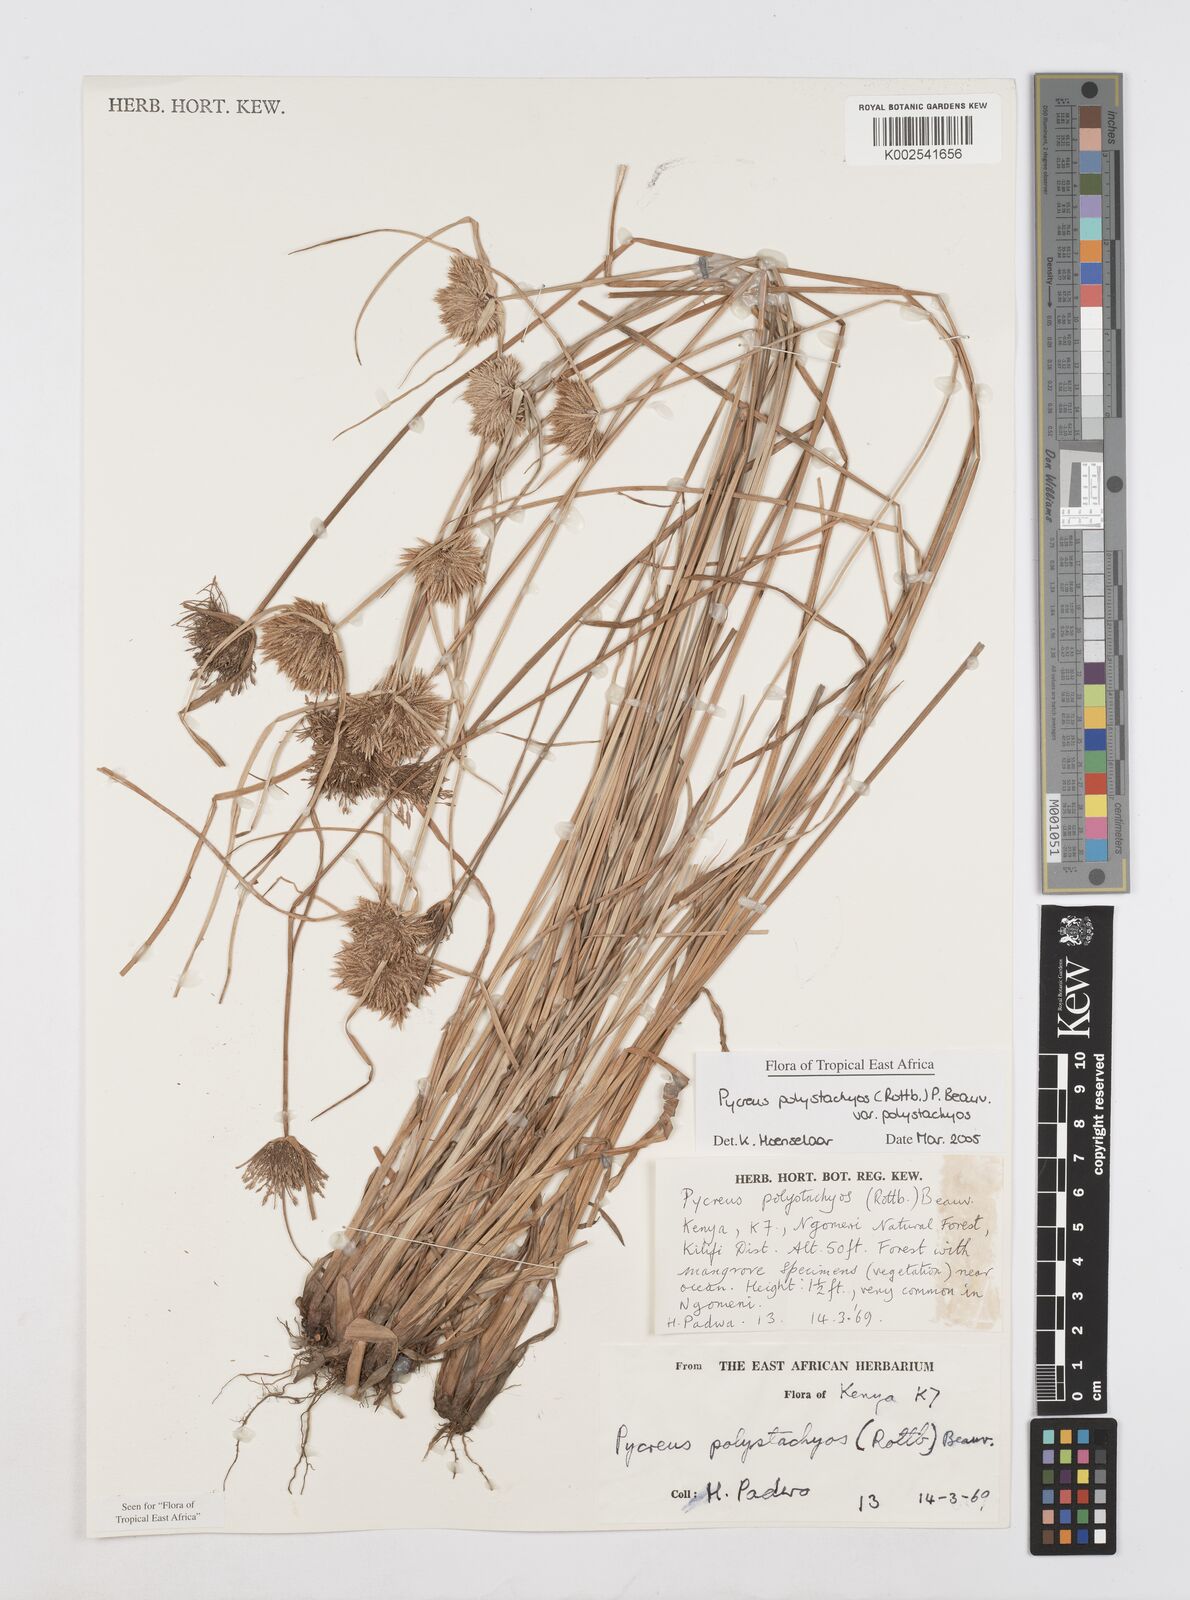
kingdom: Plantae
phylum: Tracheophyta
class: Liliopsida
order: Poales
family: Cyperaceae
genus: Cyperus
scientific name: Cyperus polystachyos
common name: Bunchy flat sedge
